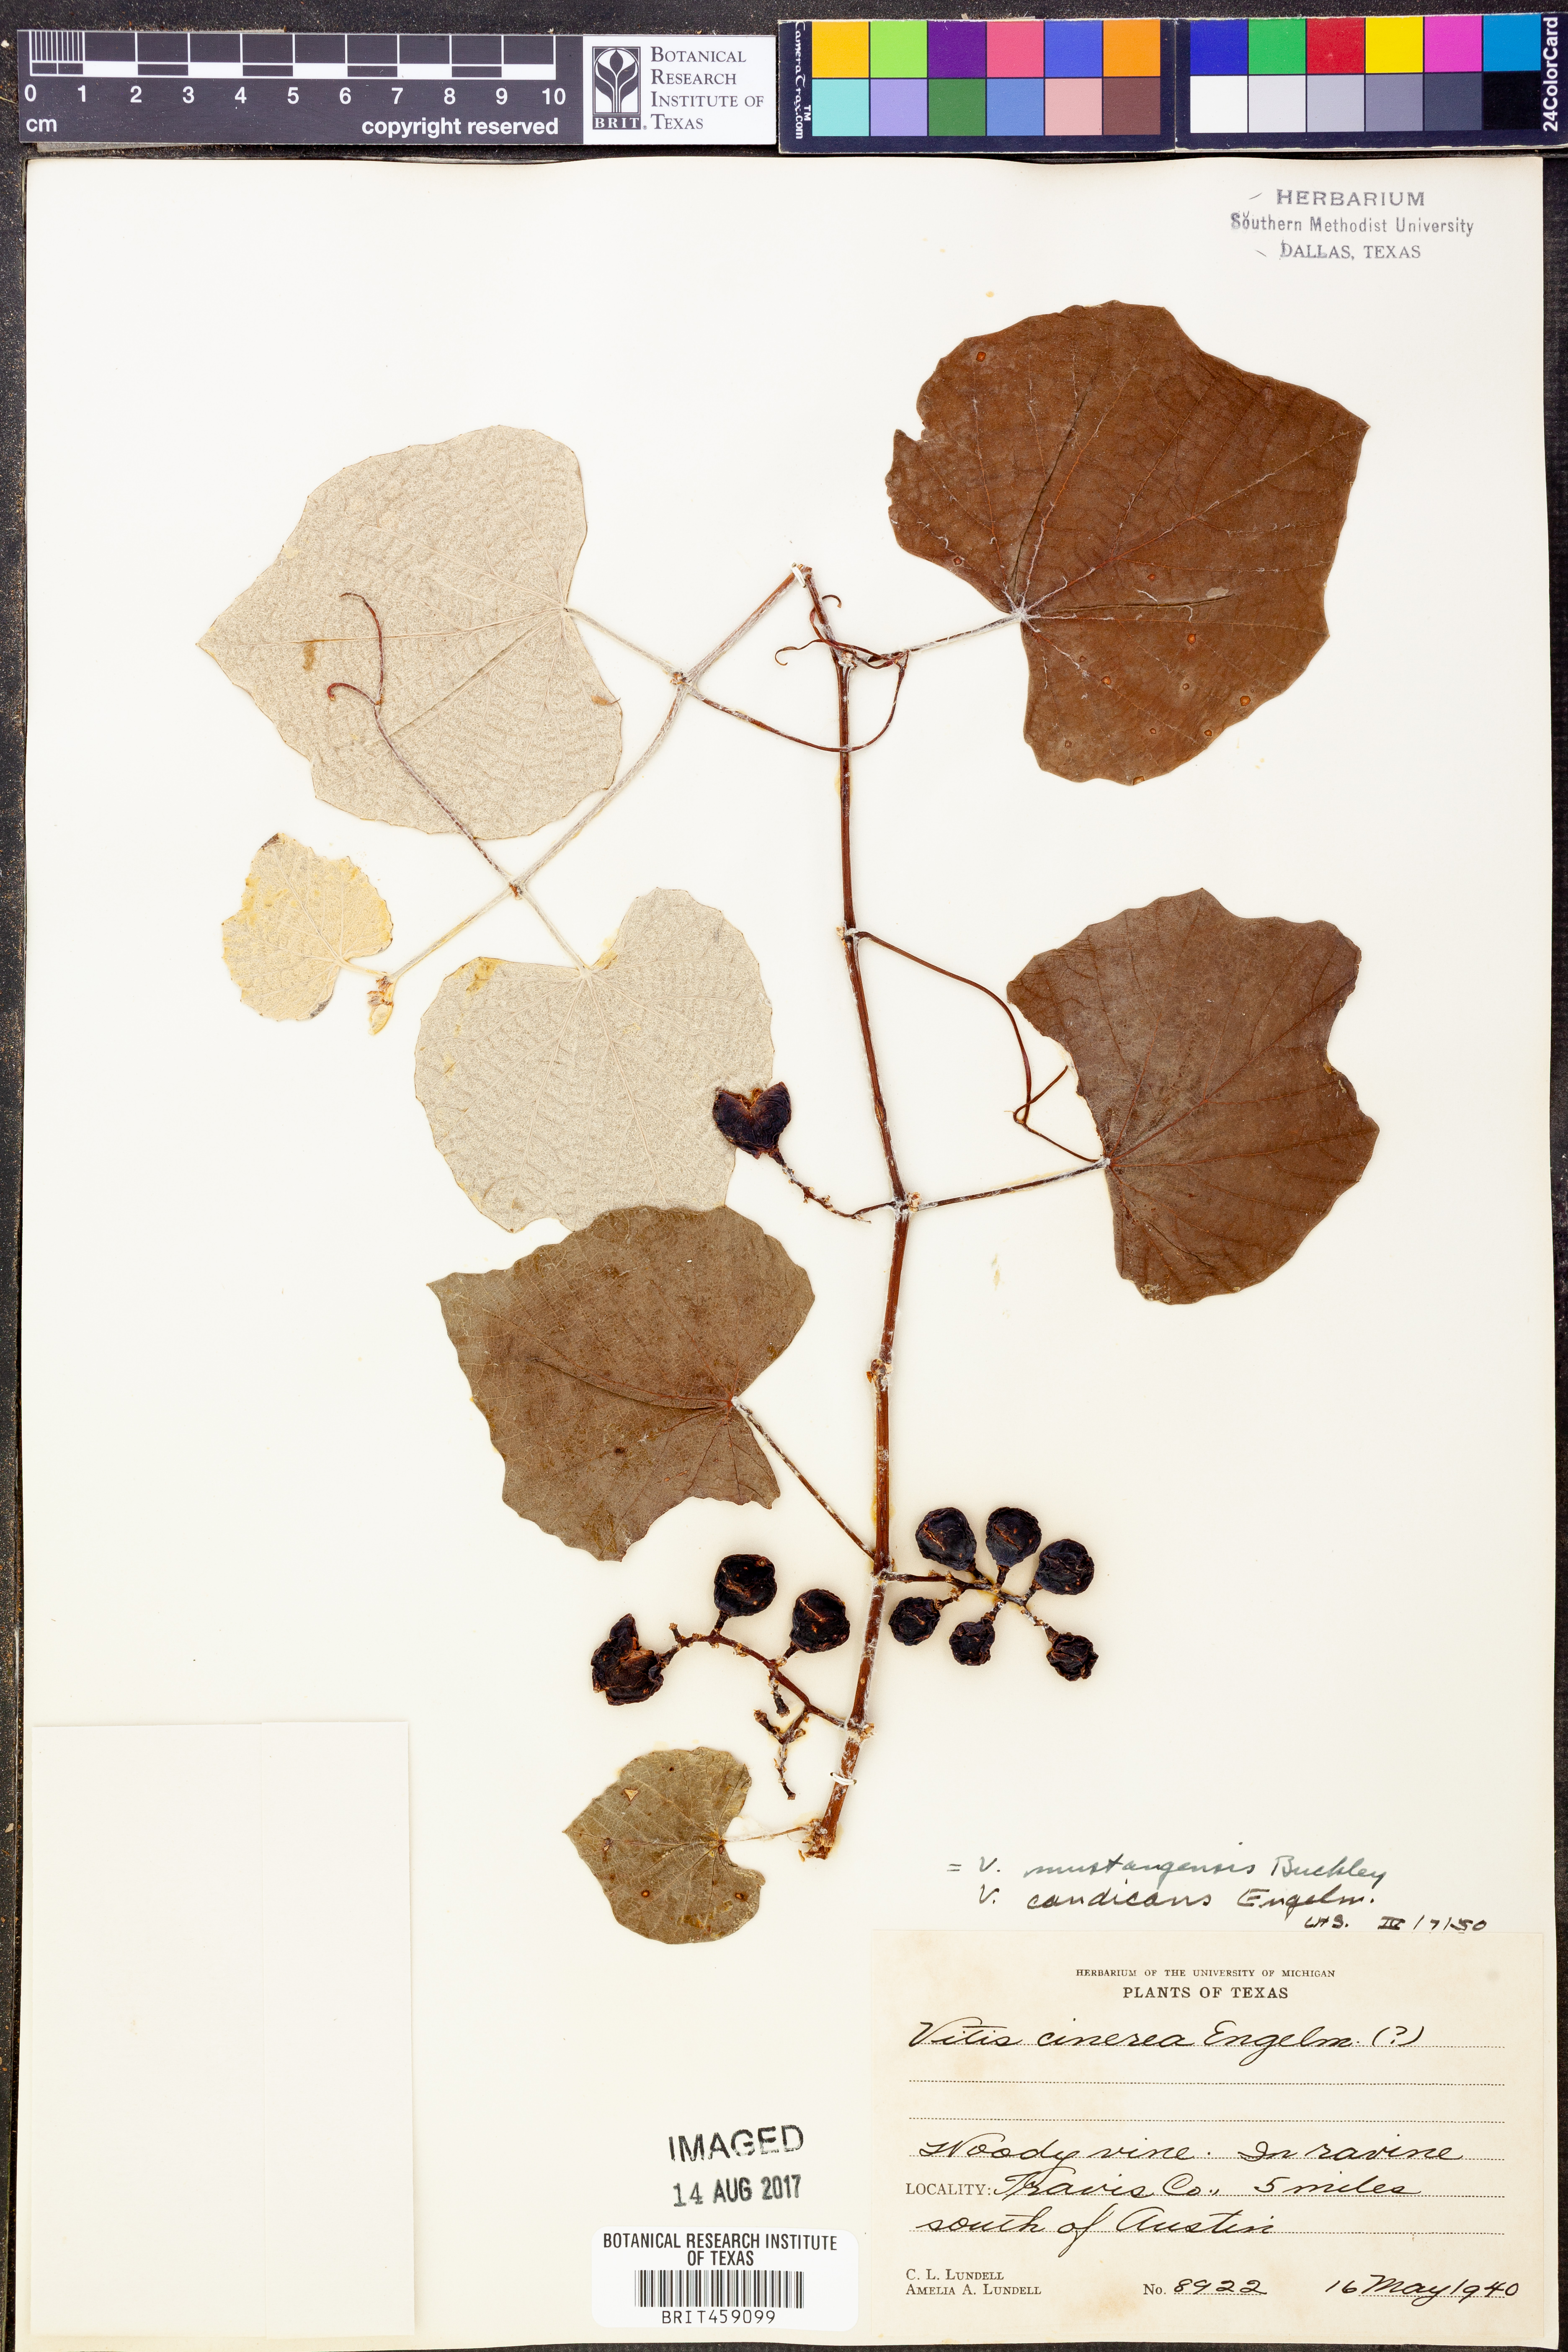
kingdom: Plantae
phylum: Tracheophyta
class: Magnoliopsida
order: Vitales
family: Vitaceae
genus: Vitis
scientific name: Vitis mustangensis
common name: Mustang grape
